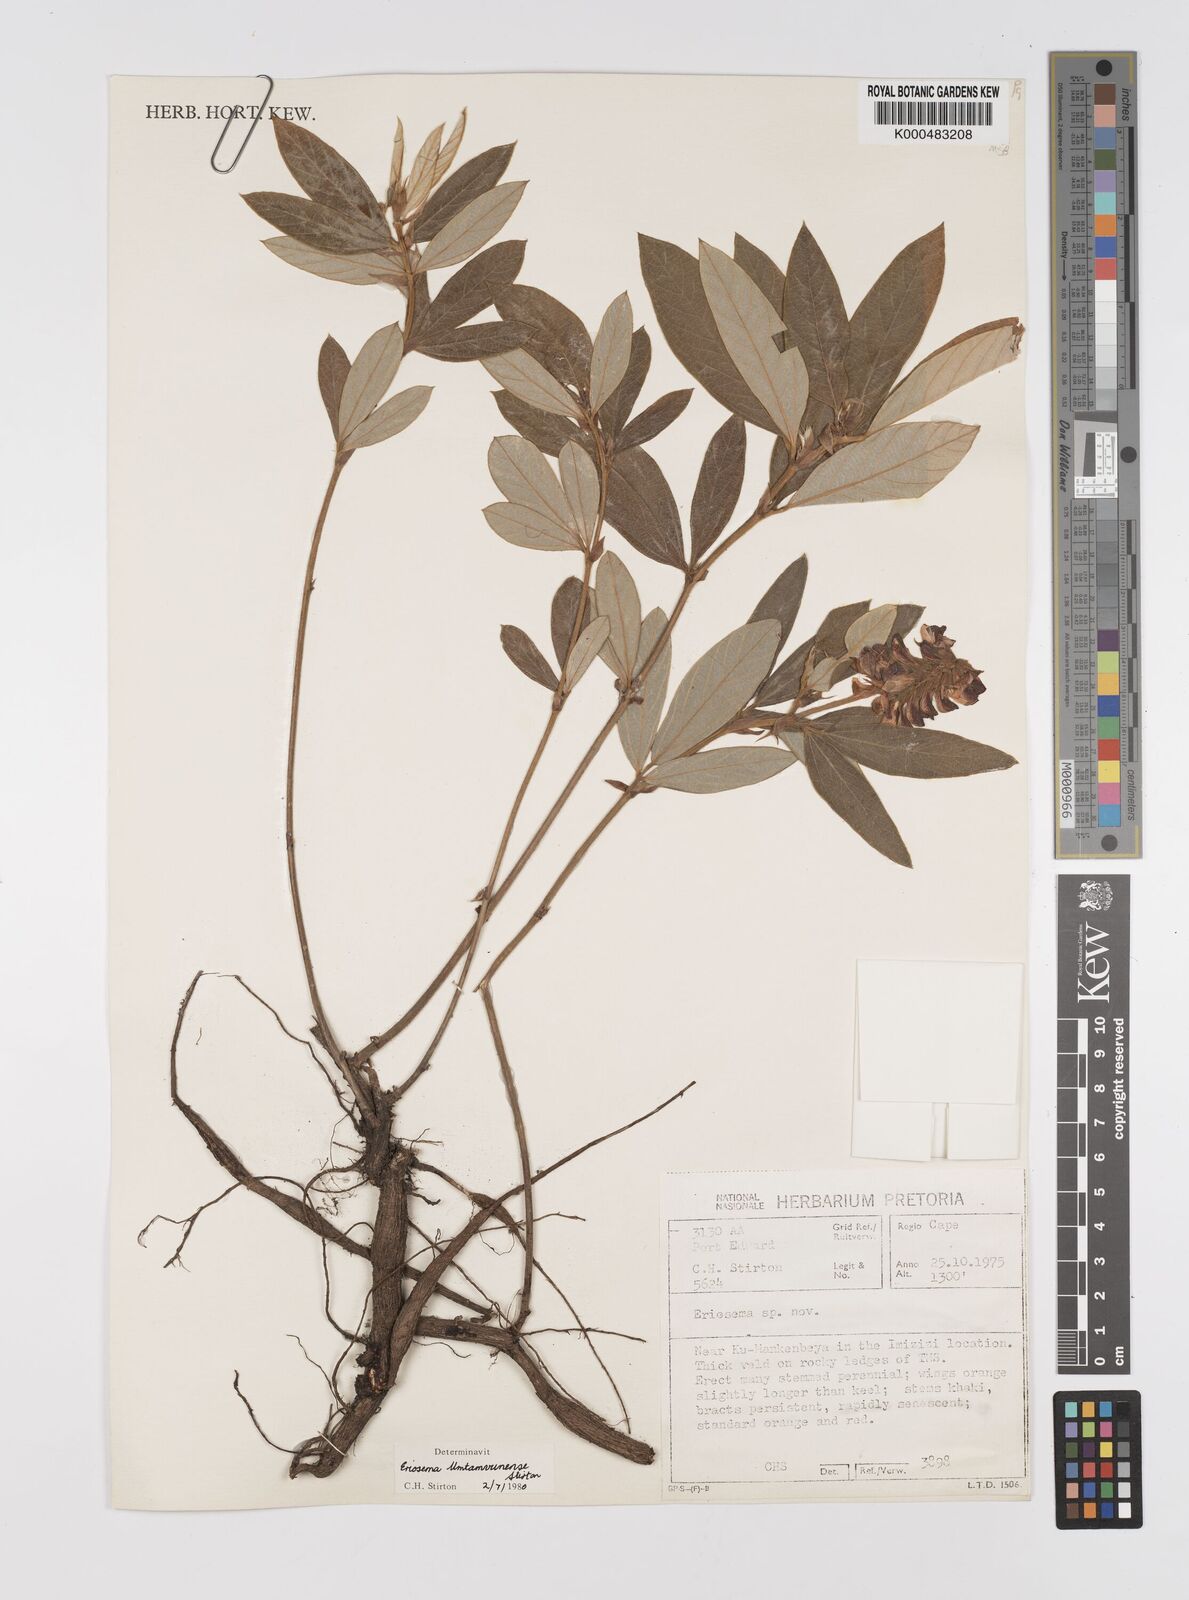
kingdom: Plantae
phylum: Tracheophyta
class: Magnoliopsida
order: Fabales
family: Fabaceae
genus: Eriosema
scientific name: Eriosema umtamvunense
